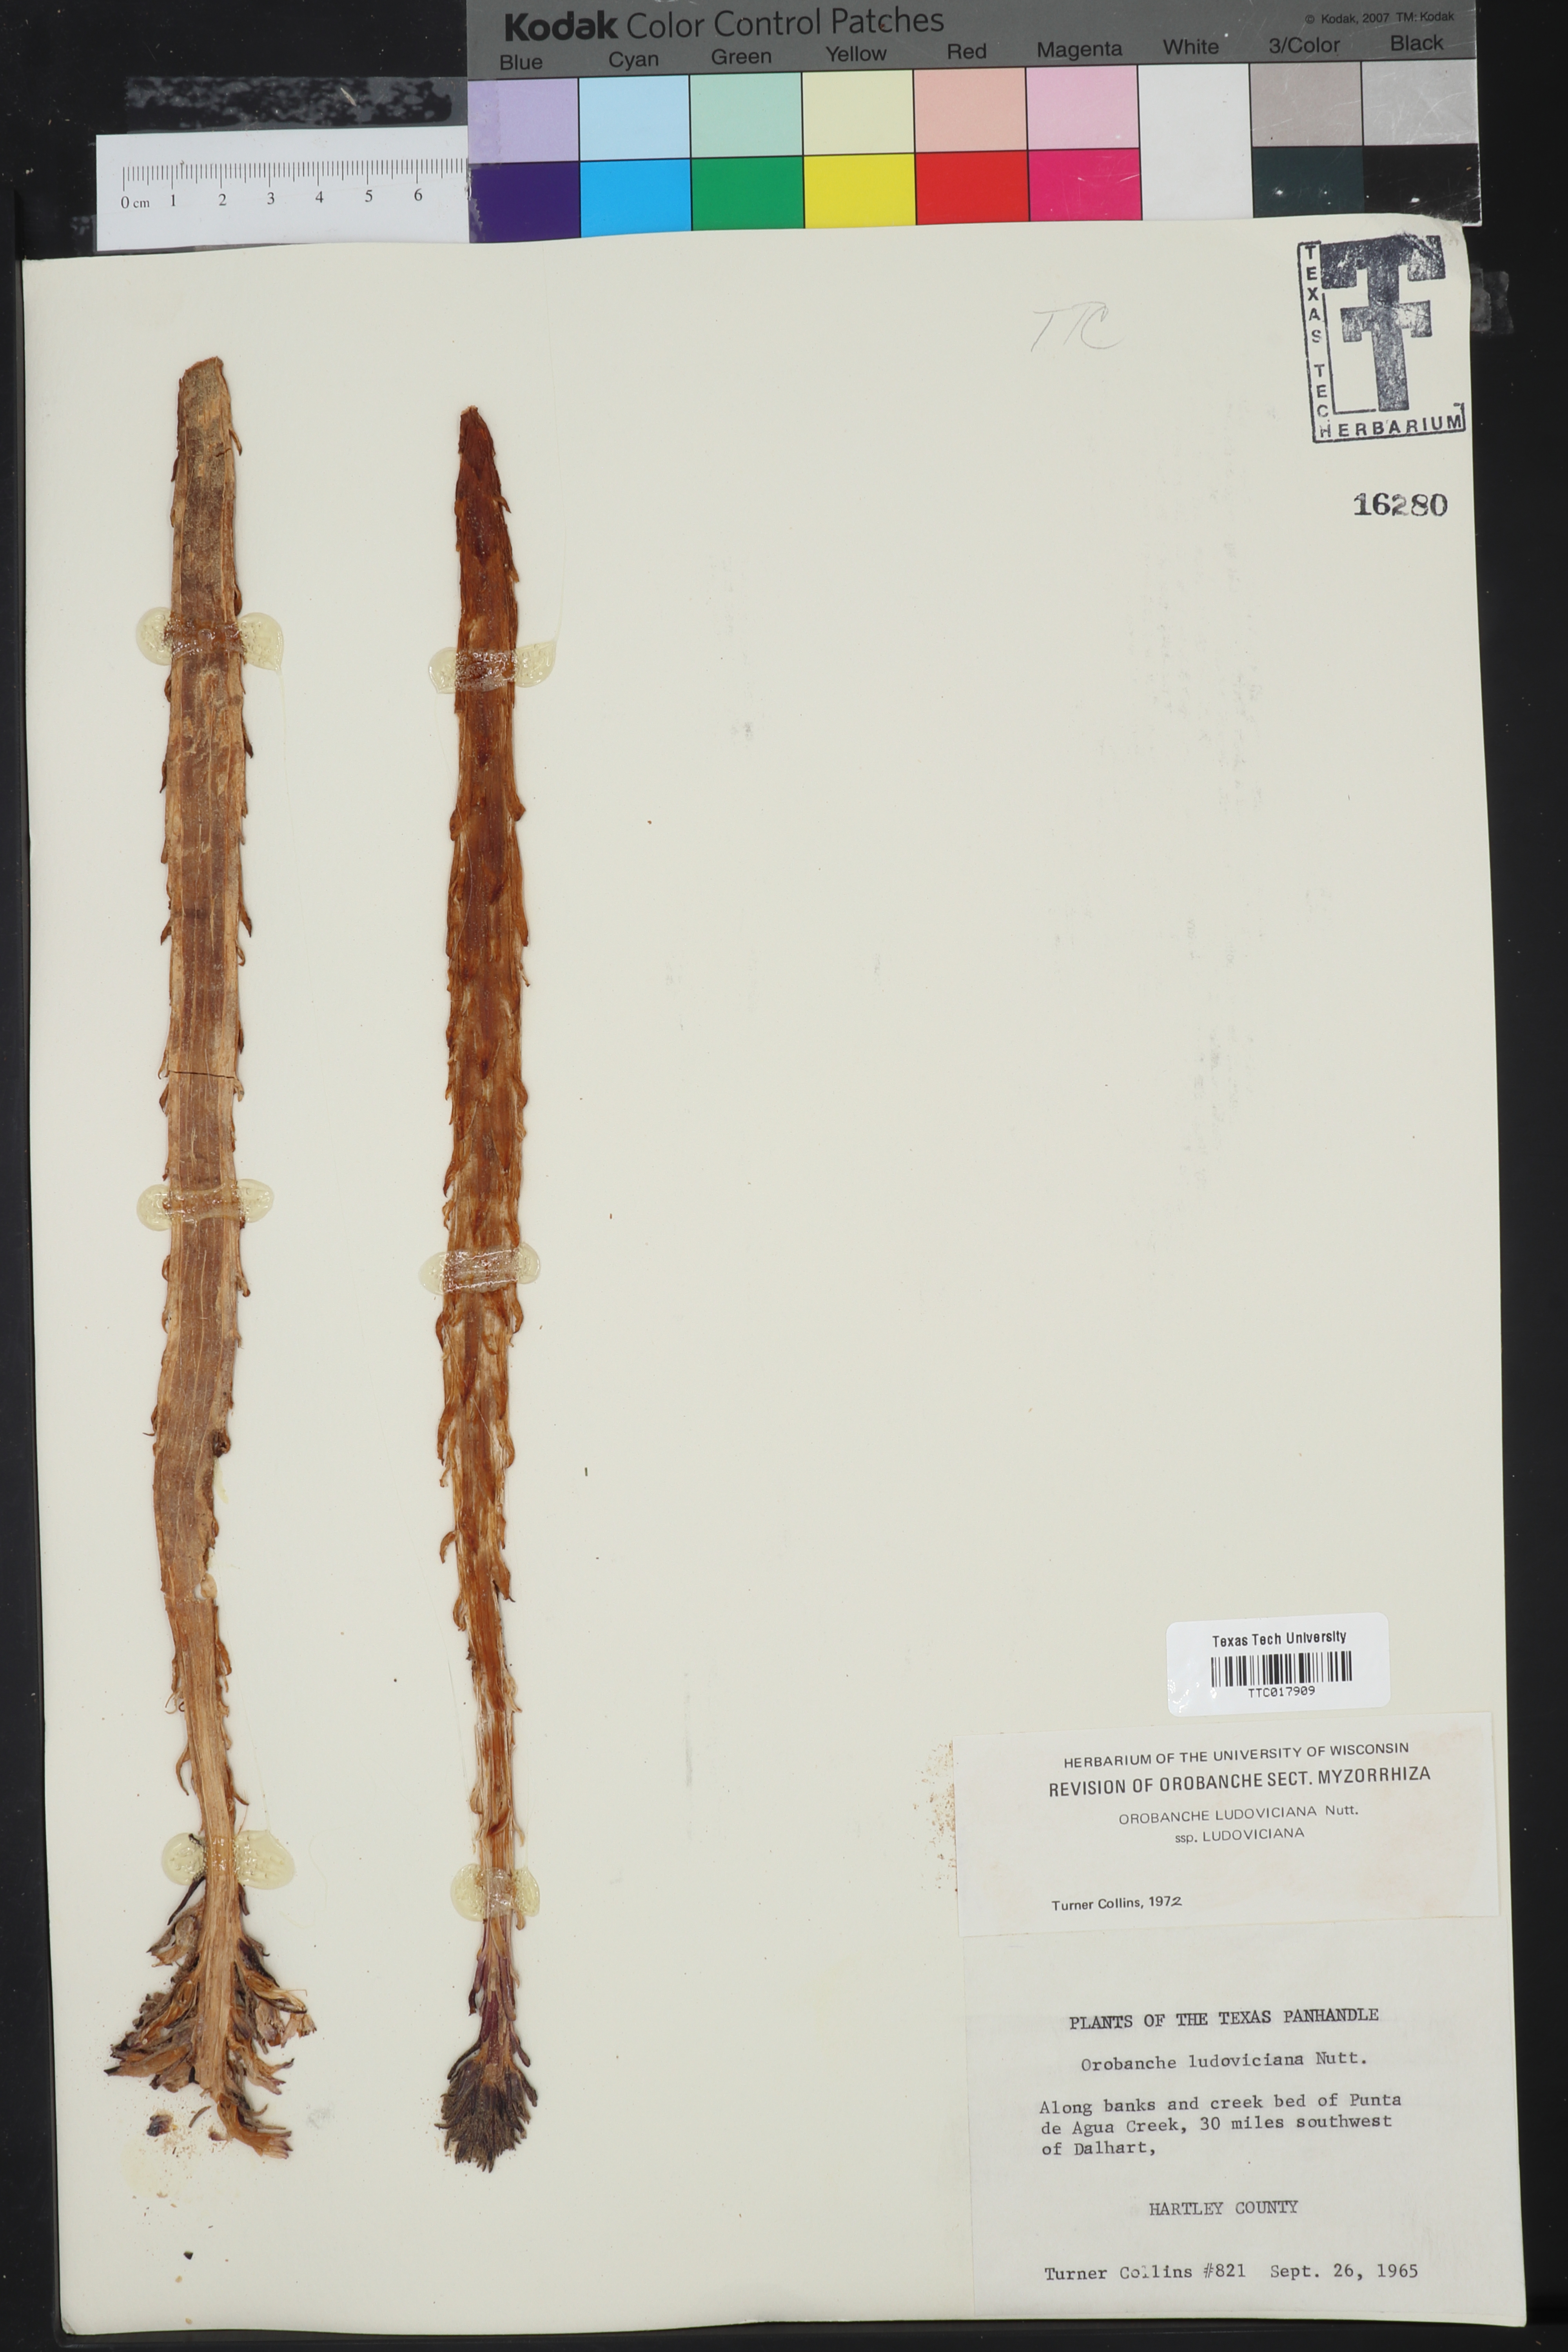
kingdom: Plantae
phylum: Tracheophyta
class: Magnoliopsida
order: Lamiales
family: Orobanchaceae
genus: Aphyllon
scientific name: Aphyllon ludovicianum
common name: Louisiana broomrape
